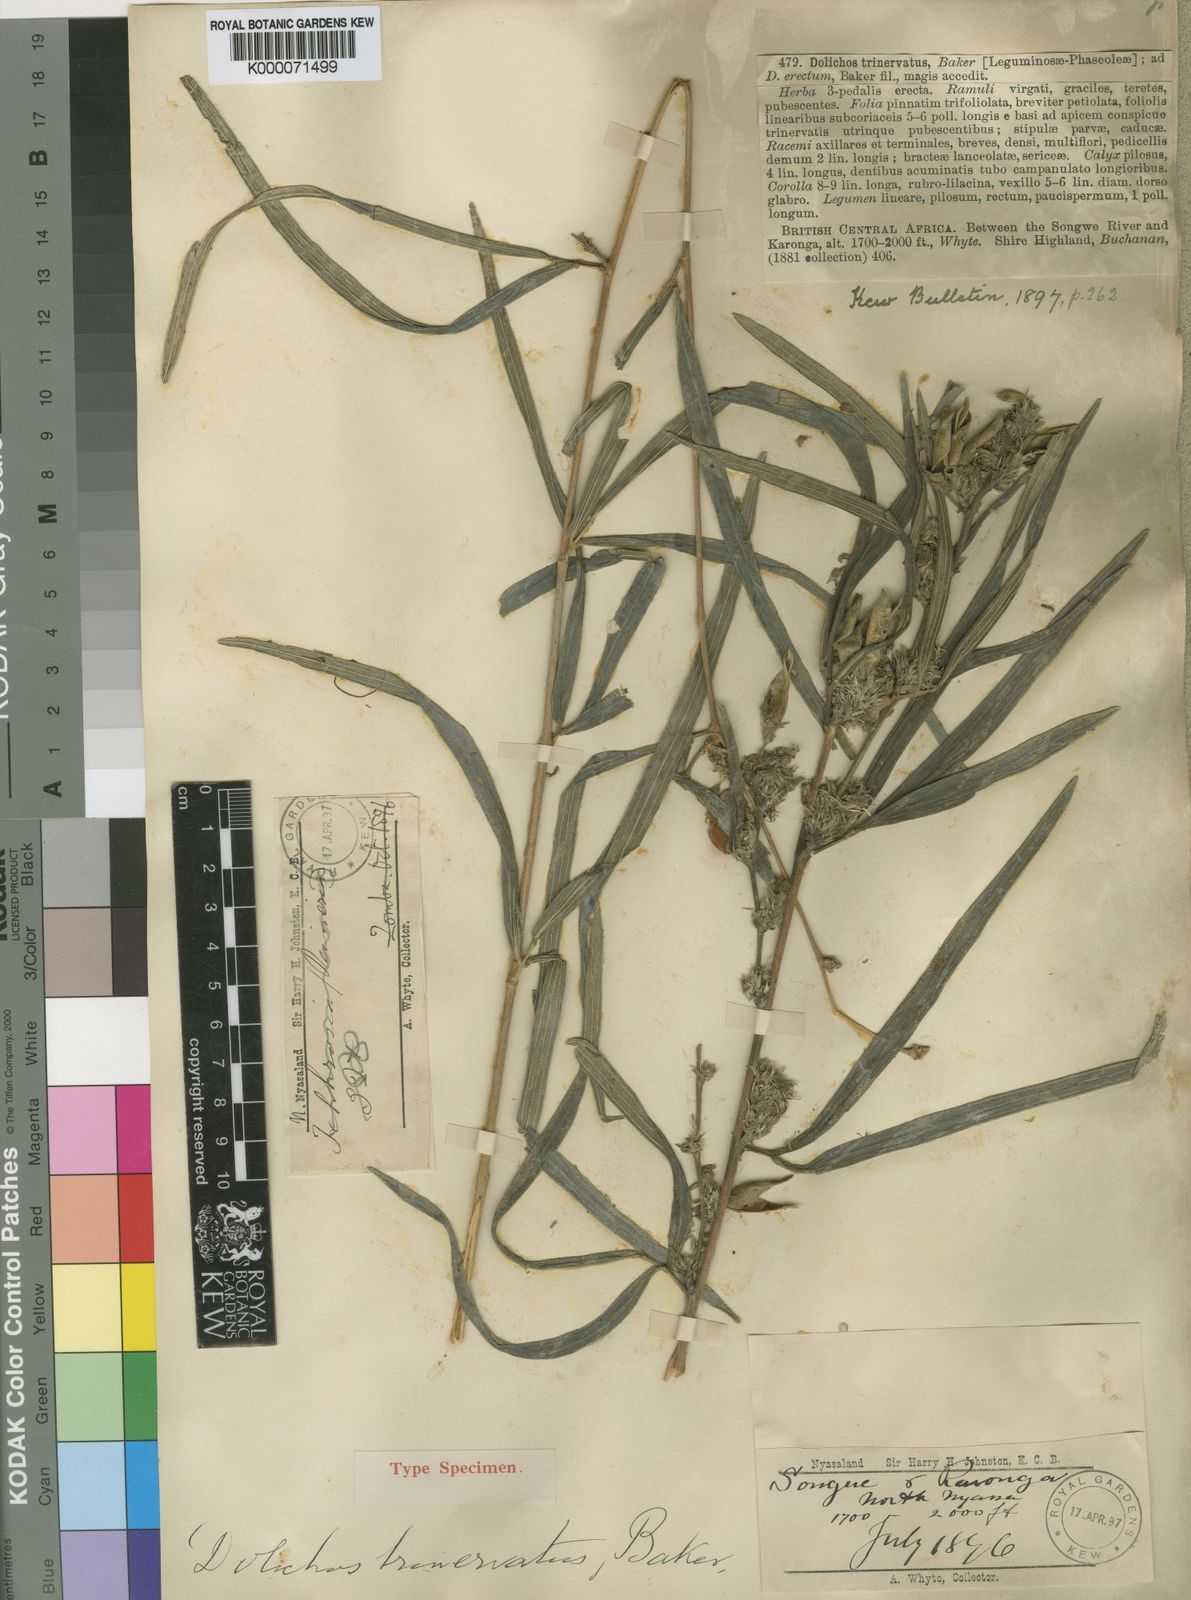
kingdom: Plantae
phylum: Tracheophyta
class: Magnoliopsida
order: Fabales
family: Fabaceae
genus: Dolichos
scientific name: Dolichos trinervatus
